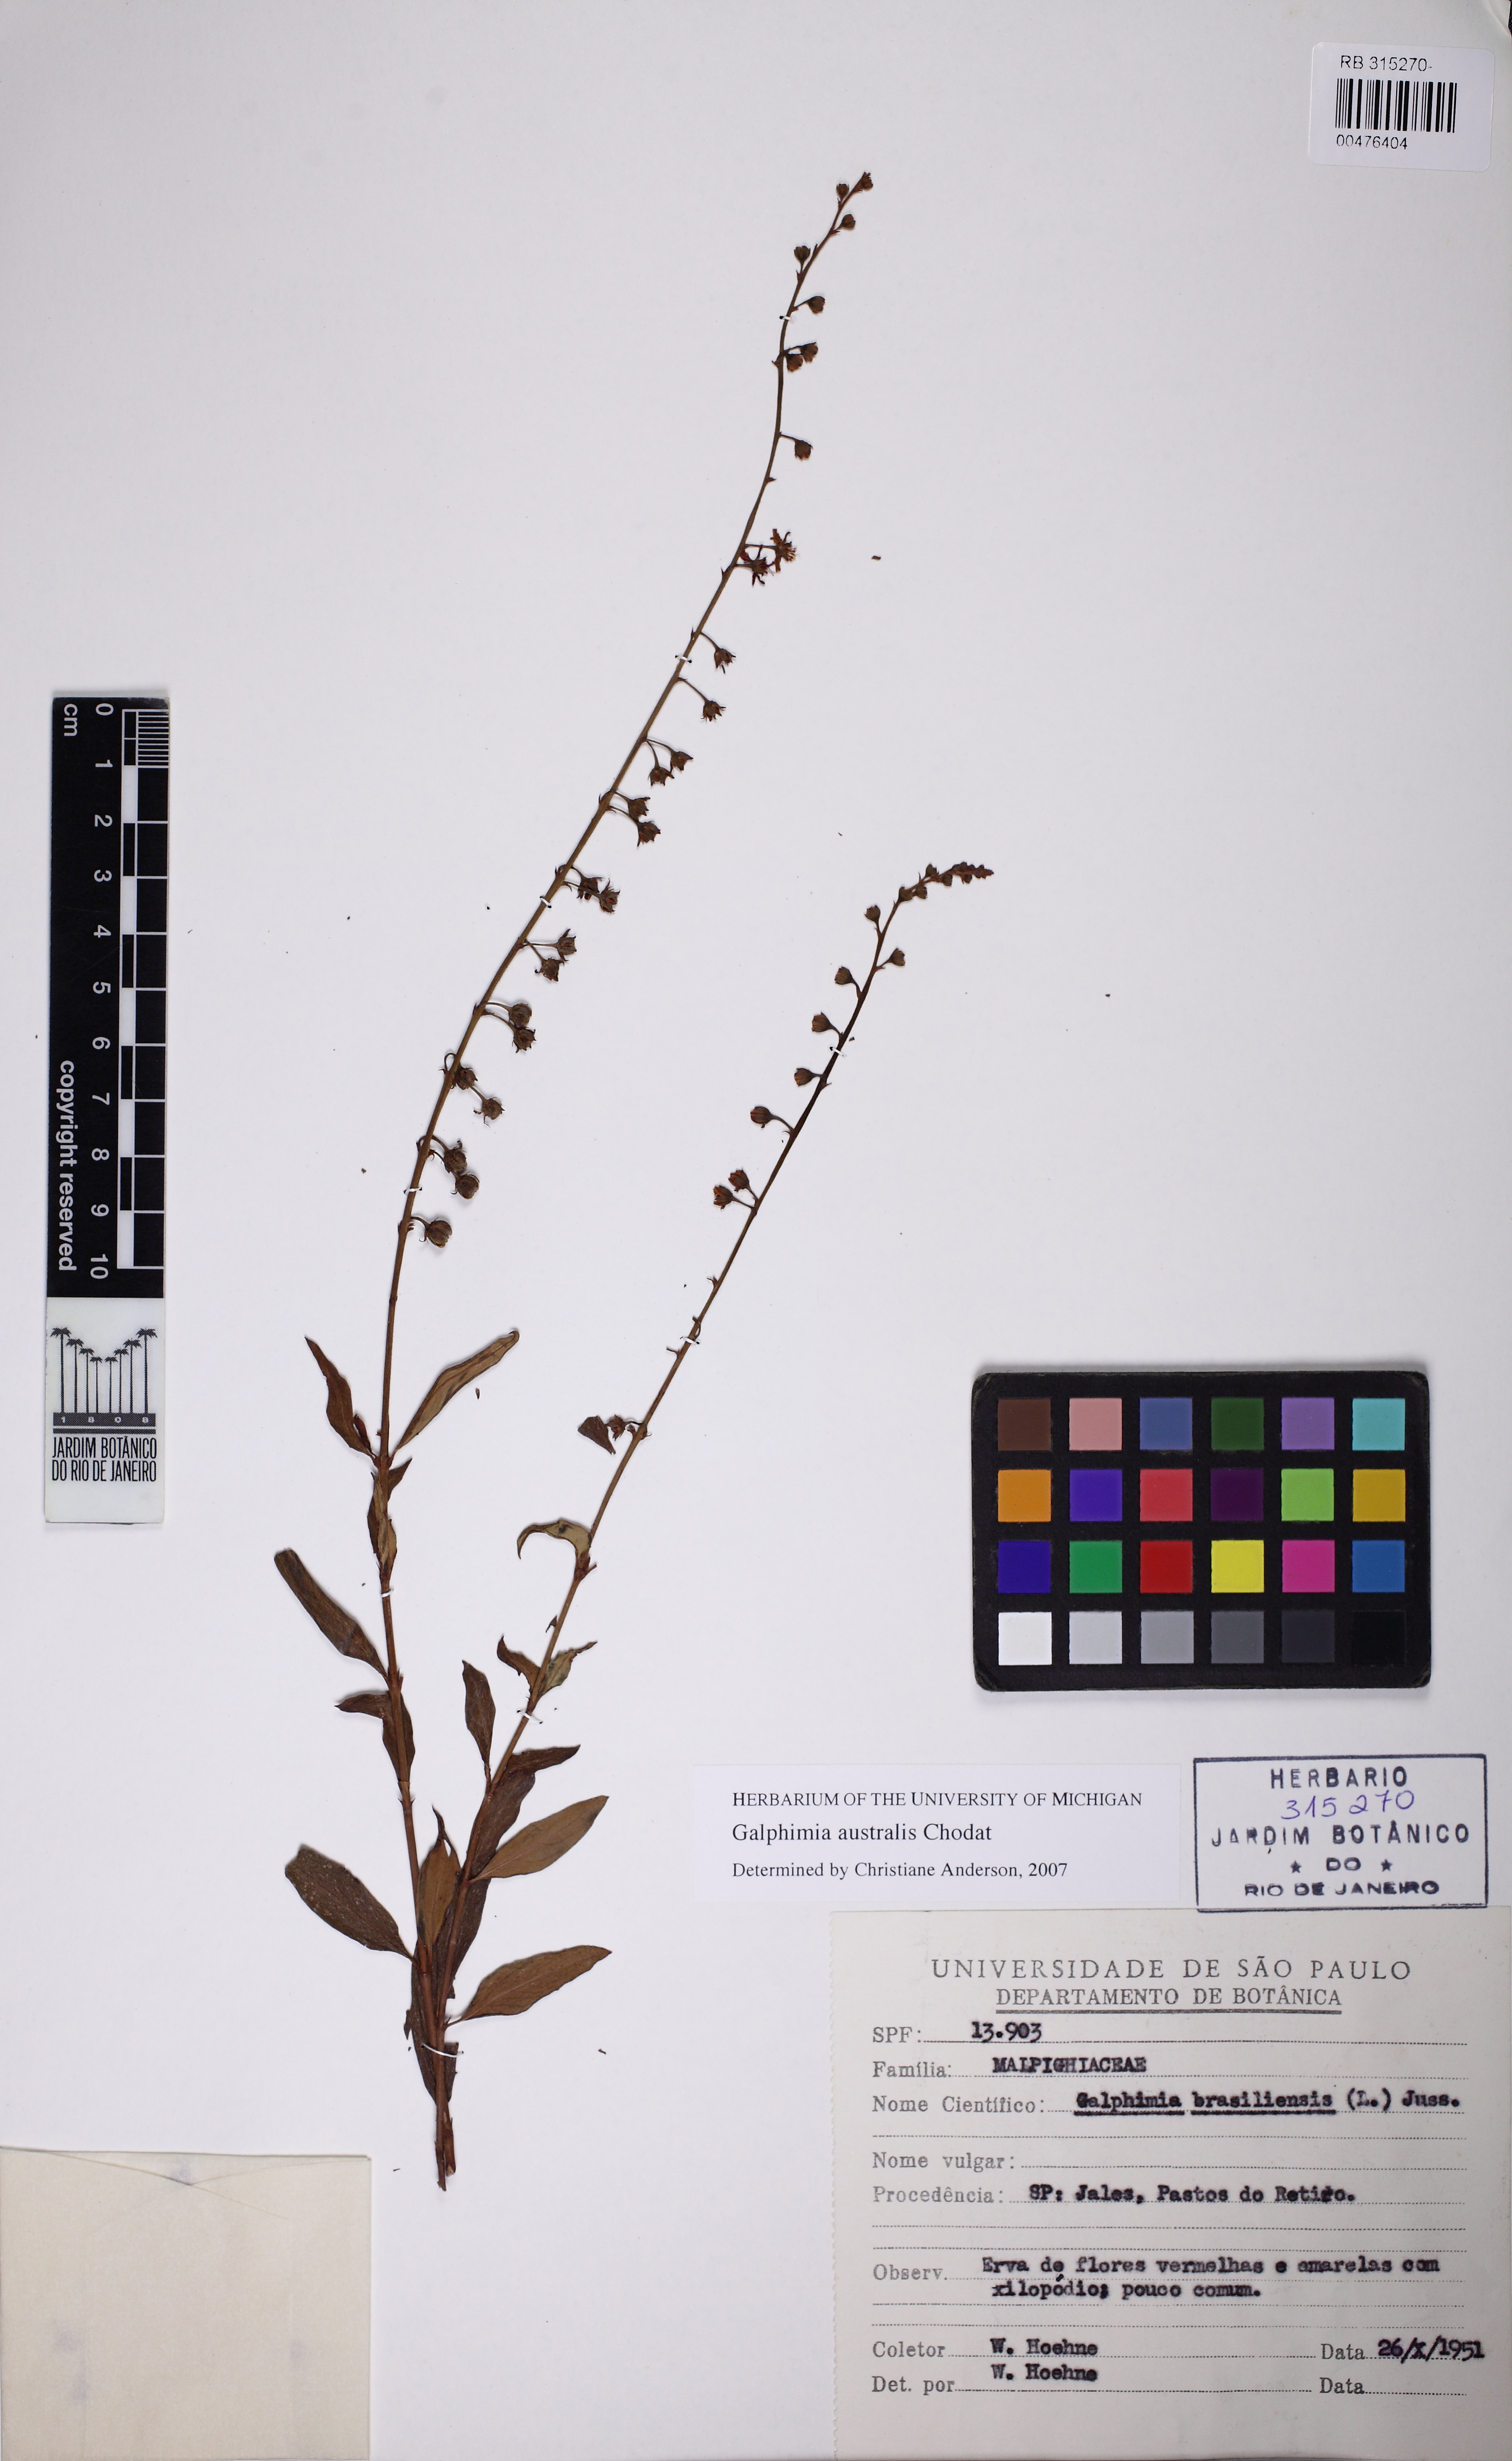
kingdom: Plantae
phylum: Tracheophyta
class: Magnoliopsida
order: Malpighiales
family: Malpighiaceae
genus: Galphimia
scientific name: Galphimia australis
